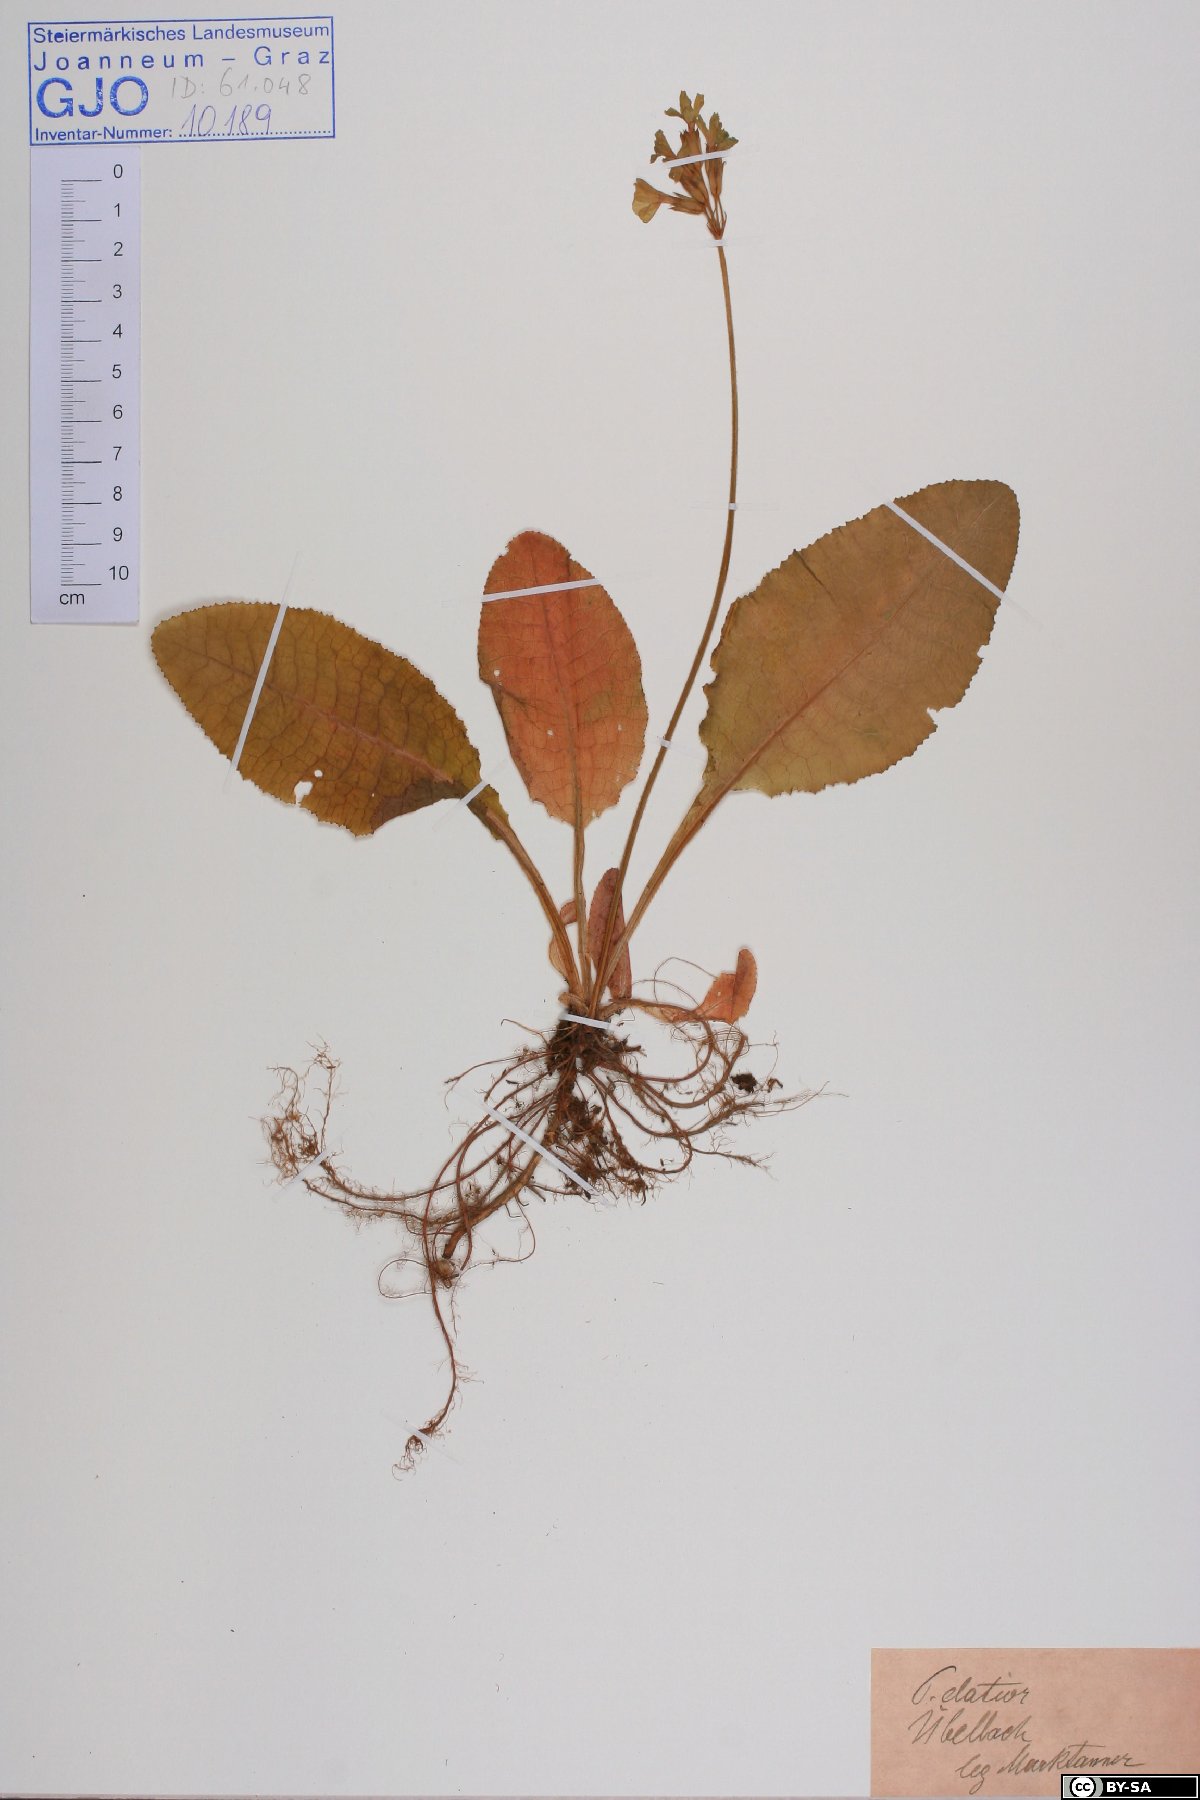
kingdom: Plantae
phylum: Tracheophyta
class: Magnoliopsida
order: Ericales
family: Primulaceae
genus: Primula
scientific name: Primula elatior
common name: Oxlip
